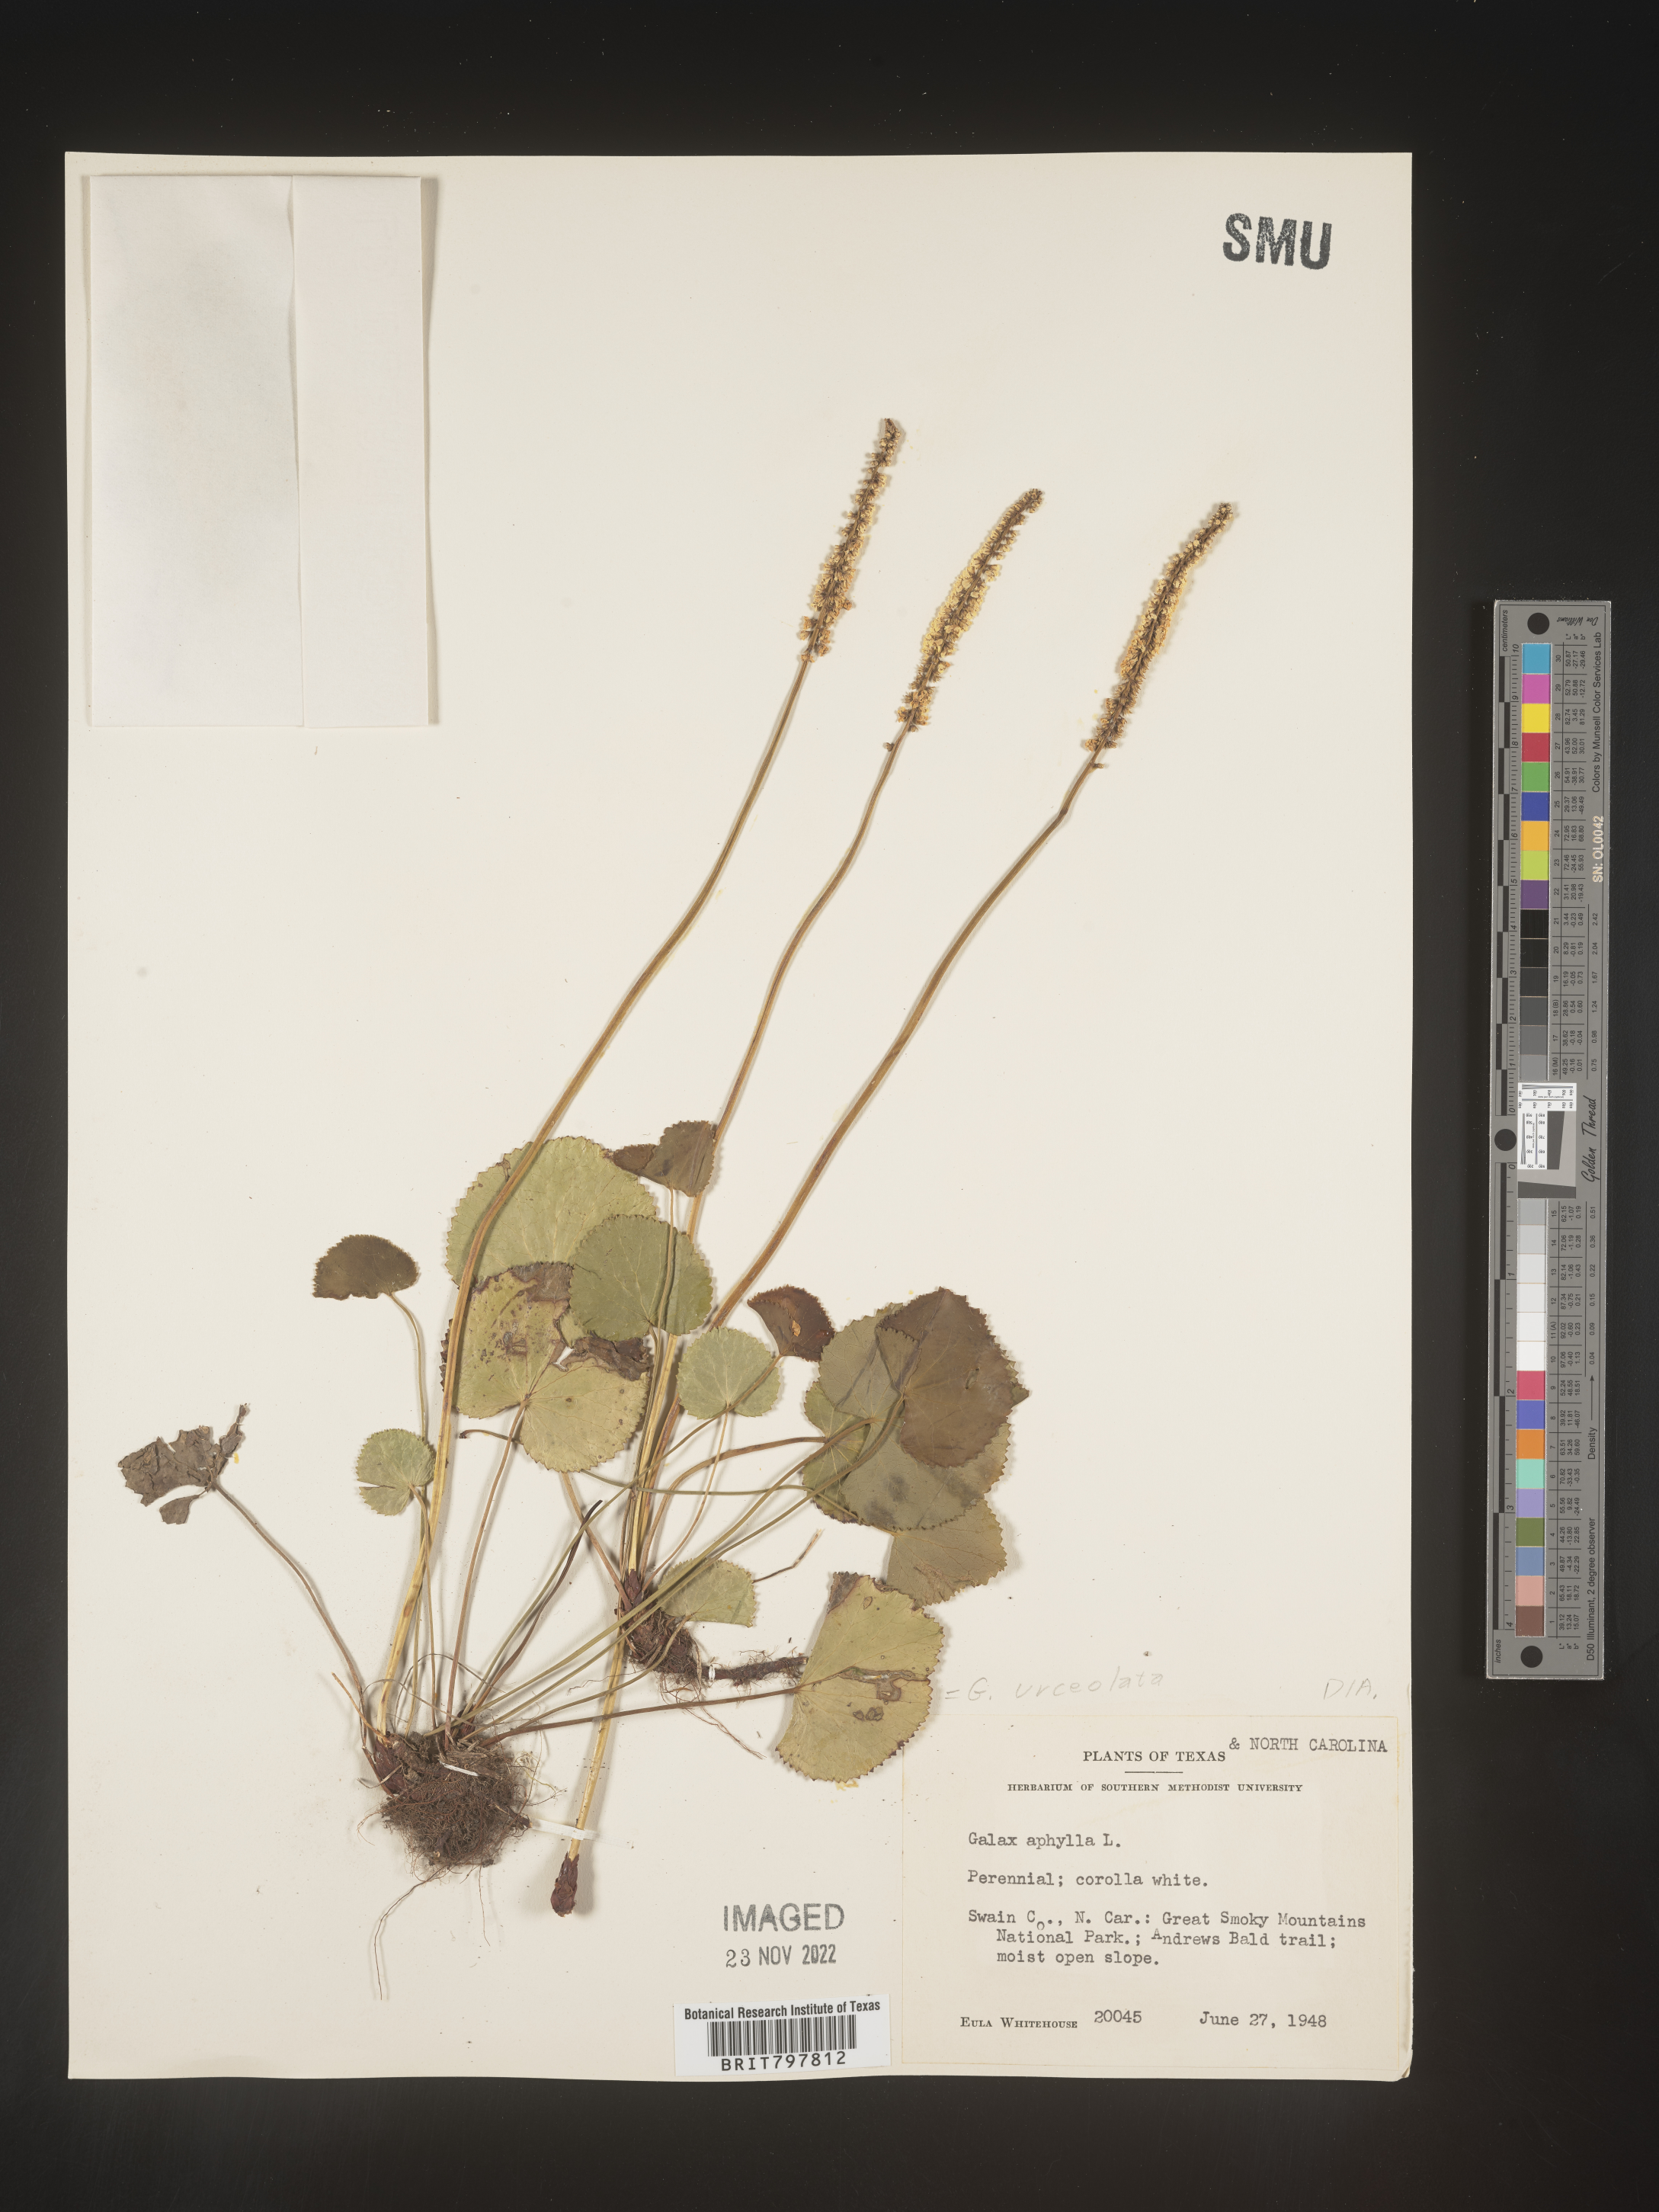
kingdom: Plantae
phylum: Tracheophyta
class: Magnoliopsida
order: Ericales
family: Diapensiaceae
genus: Galax
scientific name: Galax
